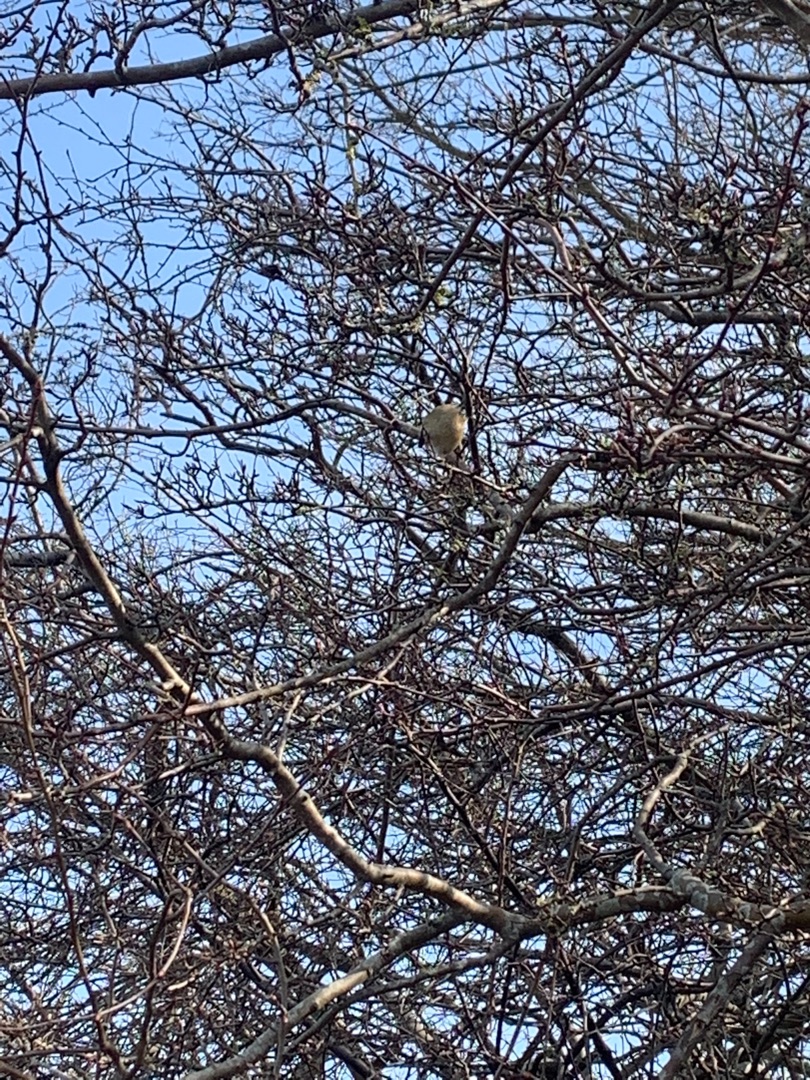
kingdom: Animalia
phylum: Chordata
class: Aves
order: Passeriformes
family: Regulidae
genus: Regulus
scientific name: Regulus regulus
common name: Fuglekonge
